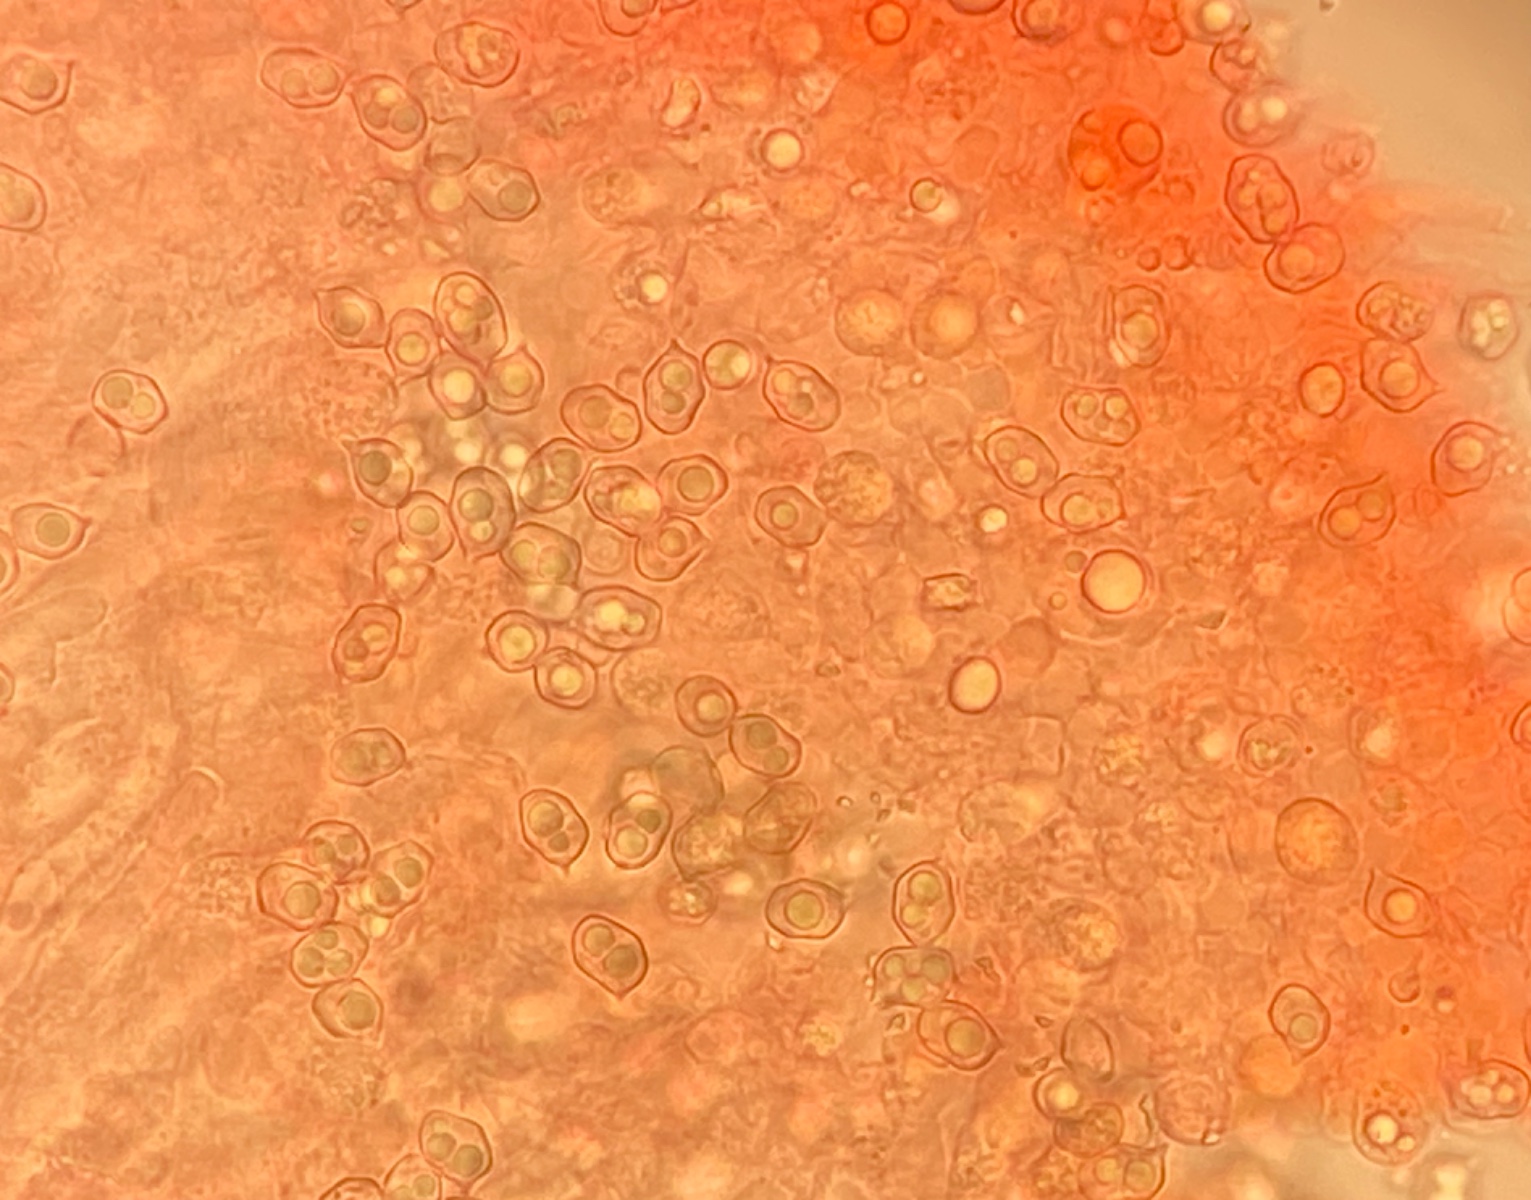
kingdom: Fungi
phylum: Basidiomycota
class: Agaricomycetes
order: Agaricales
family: Entolomataceae
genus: Entoloma
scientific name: Entoloma chalybeum
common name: blåbladet rødblad
